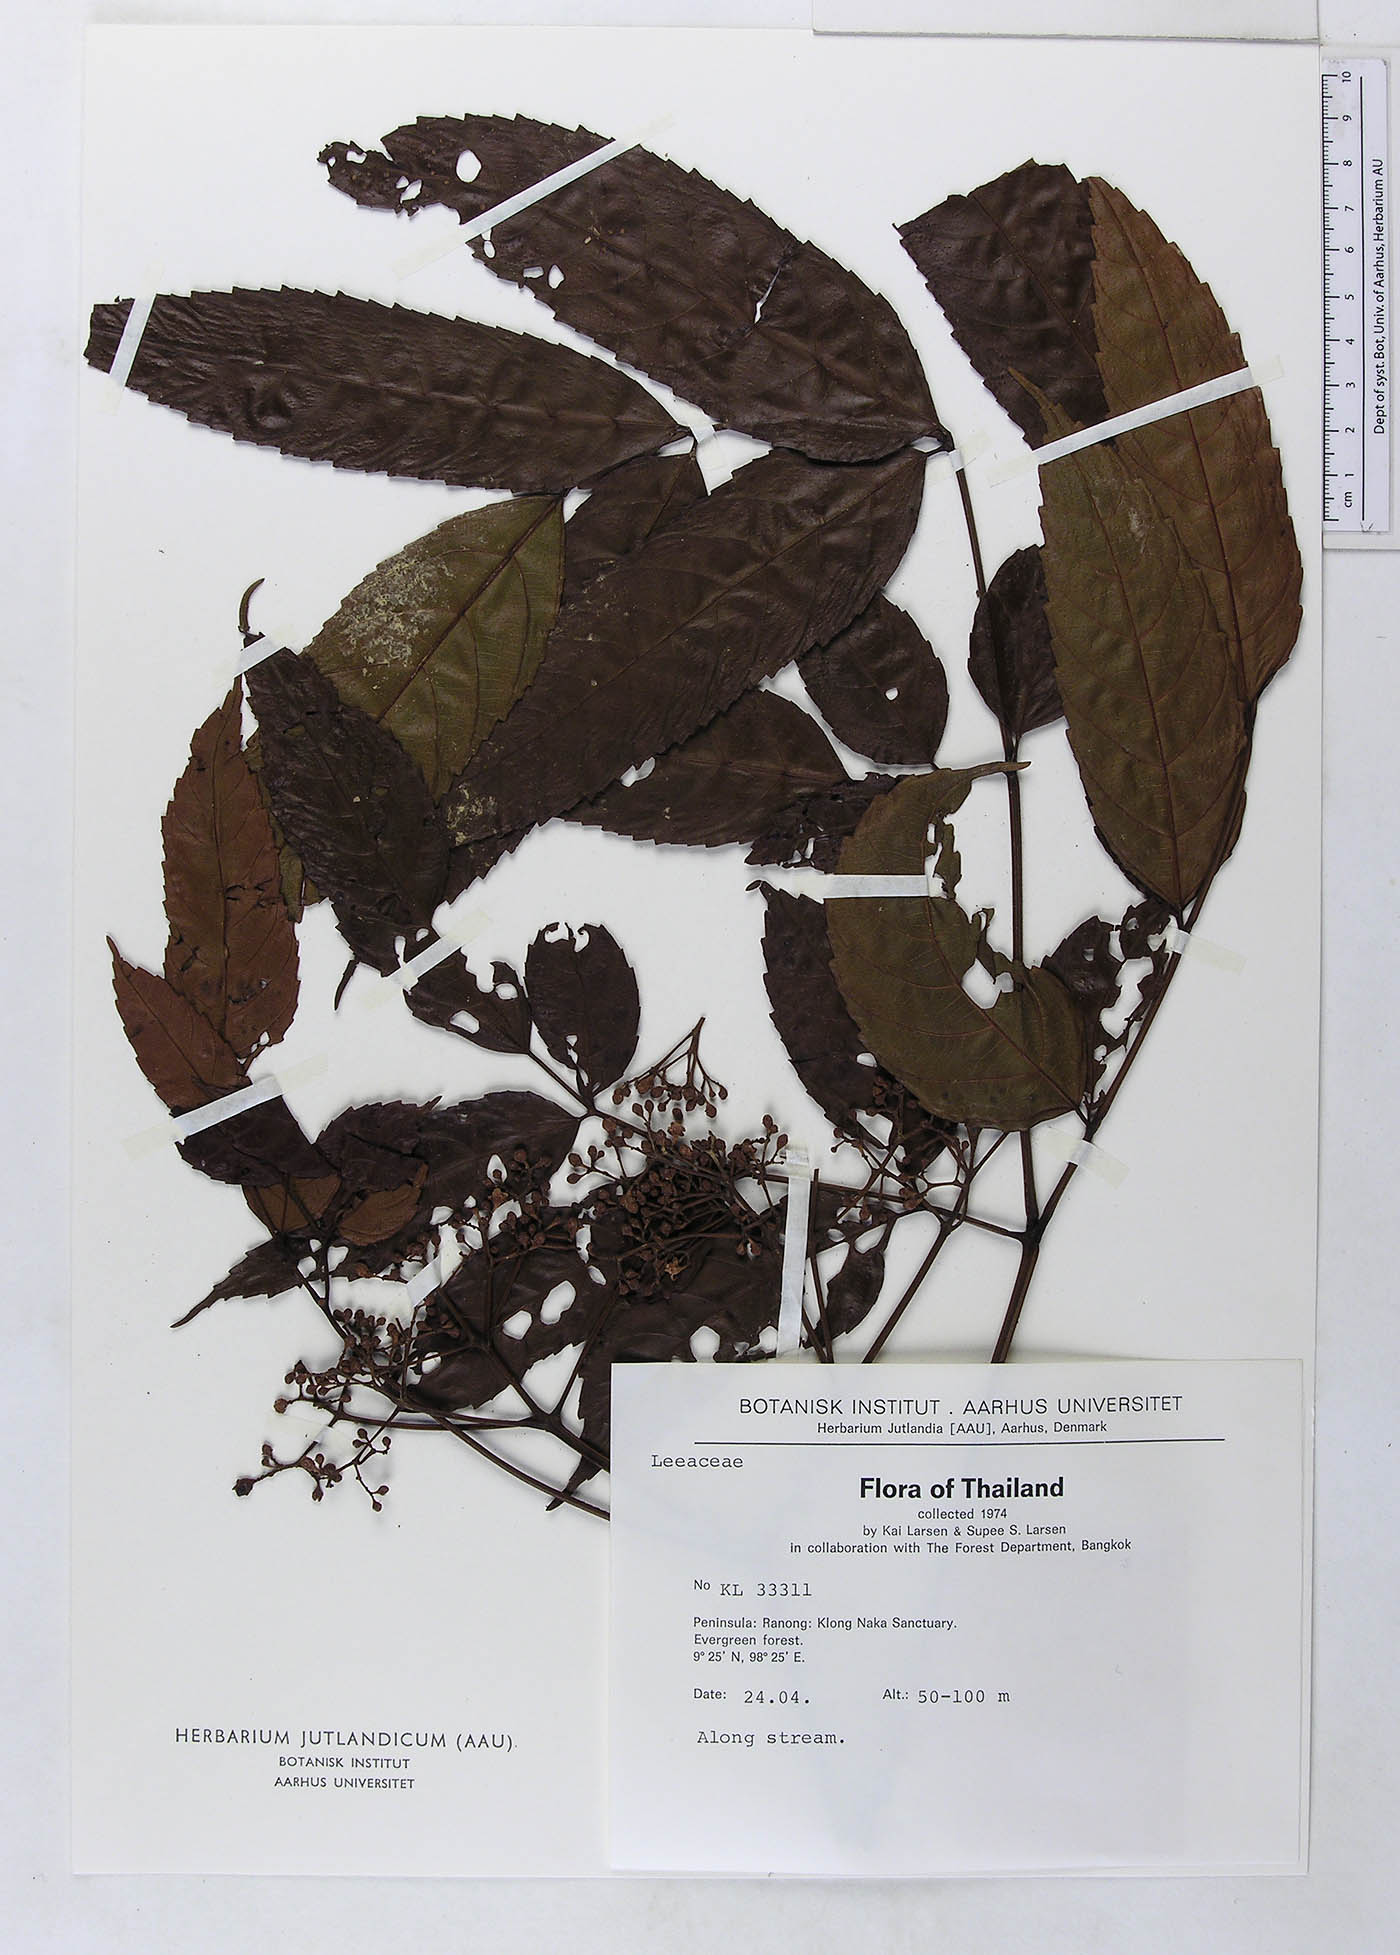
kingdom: Plantae
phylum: Tracheophyta
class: Magnoliopsida
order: Vitales
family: Vitaceae
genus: Leea
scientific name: Leea indica
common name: Bandicoot-berry
